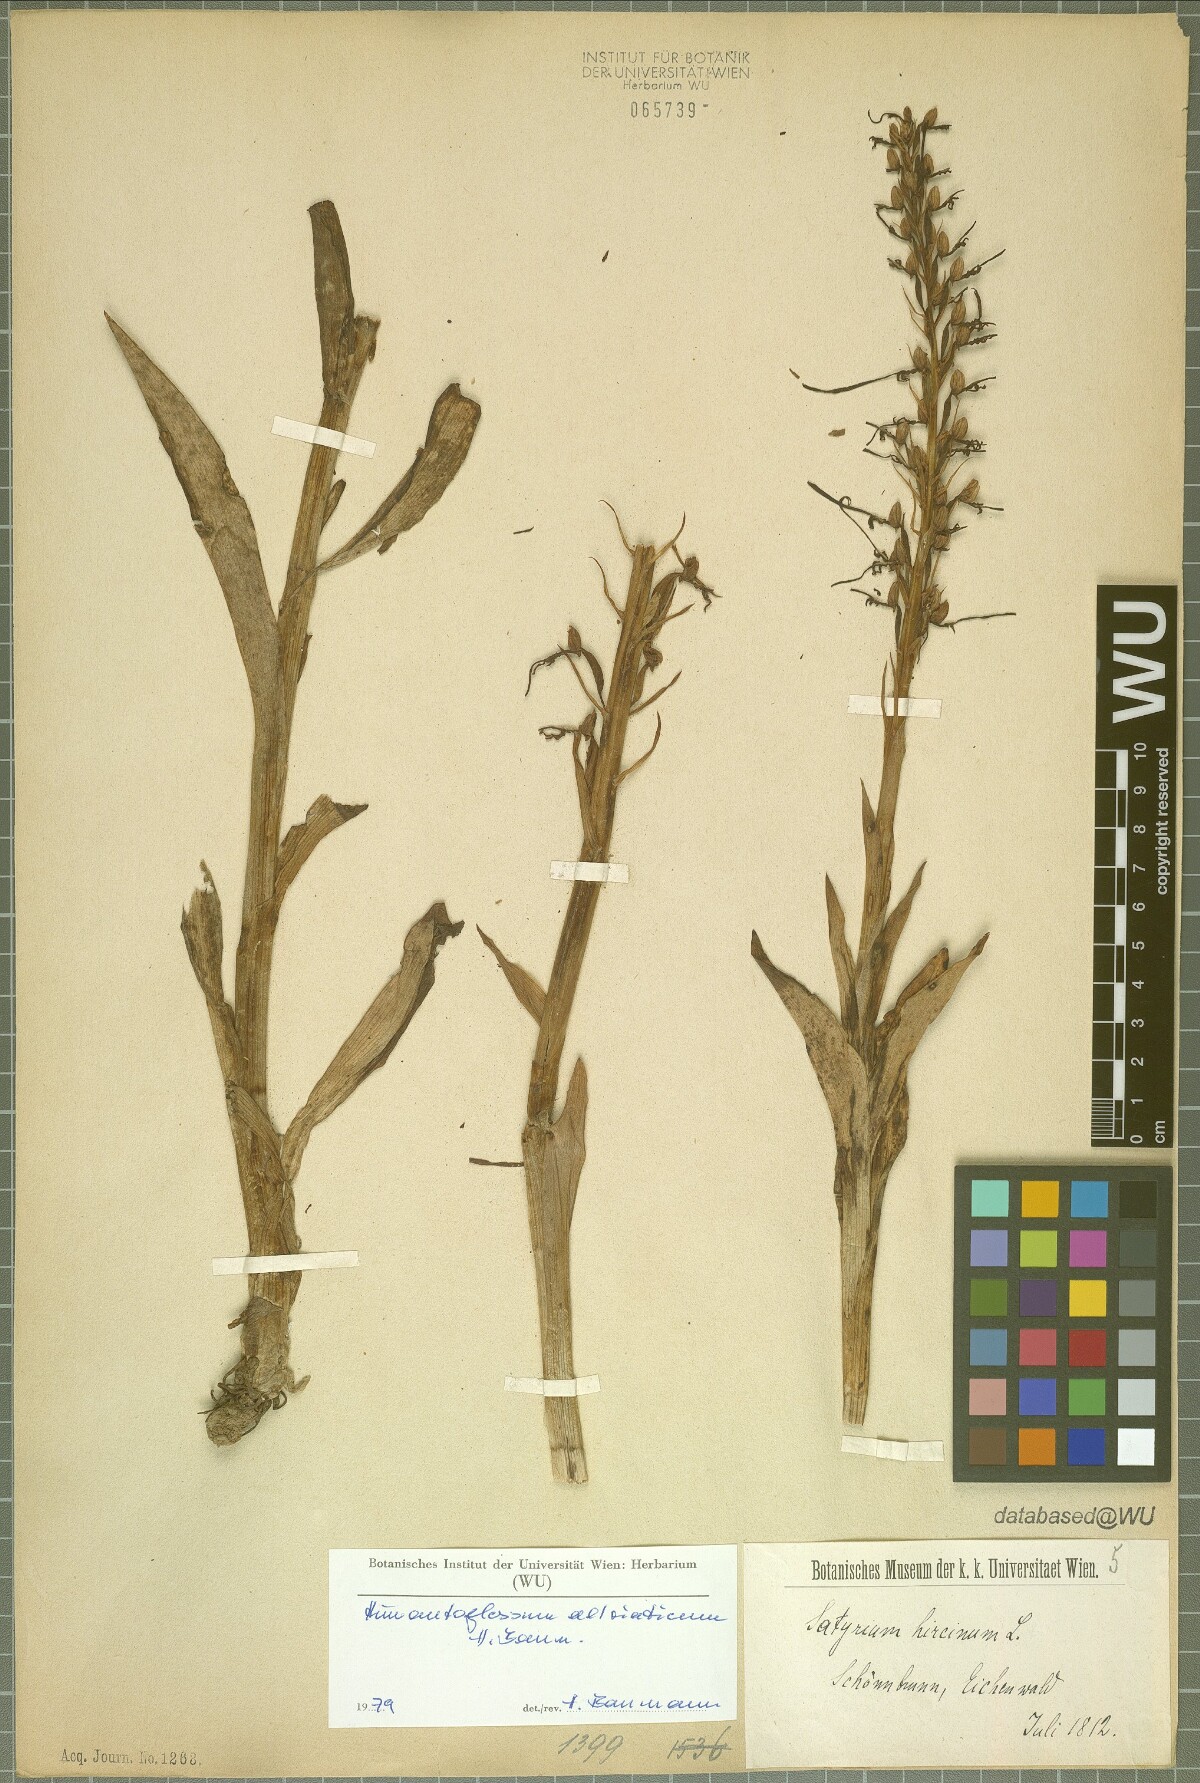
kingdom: Plantae
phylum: Tracheophyta
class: Liliopsida
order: Asparagales
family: Orchidaceae
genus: Himantoglossum
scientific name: Himantoglossum adriaticum
